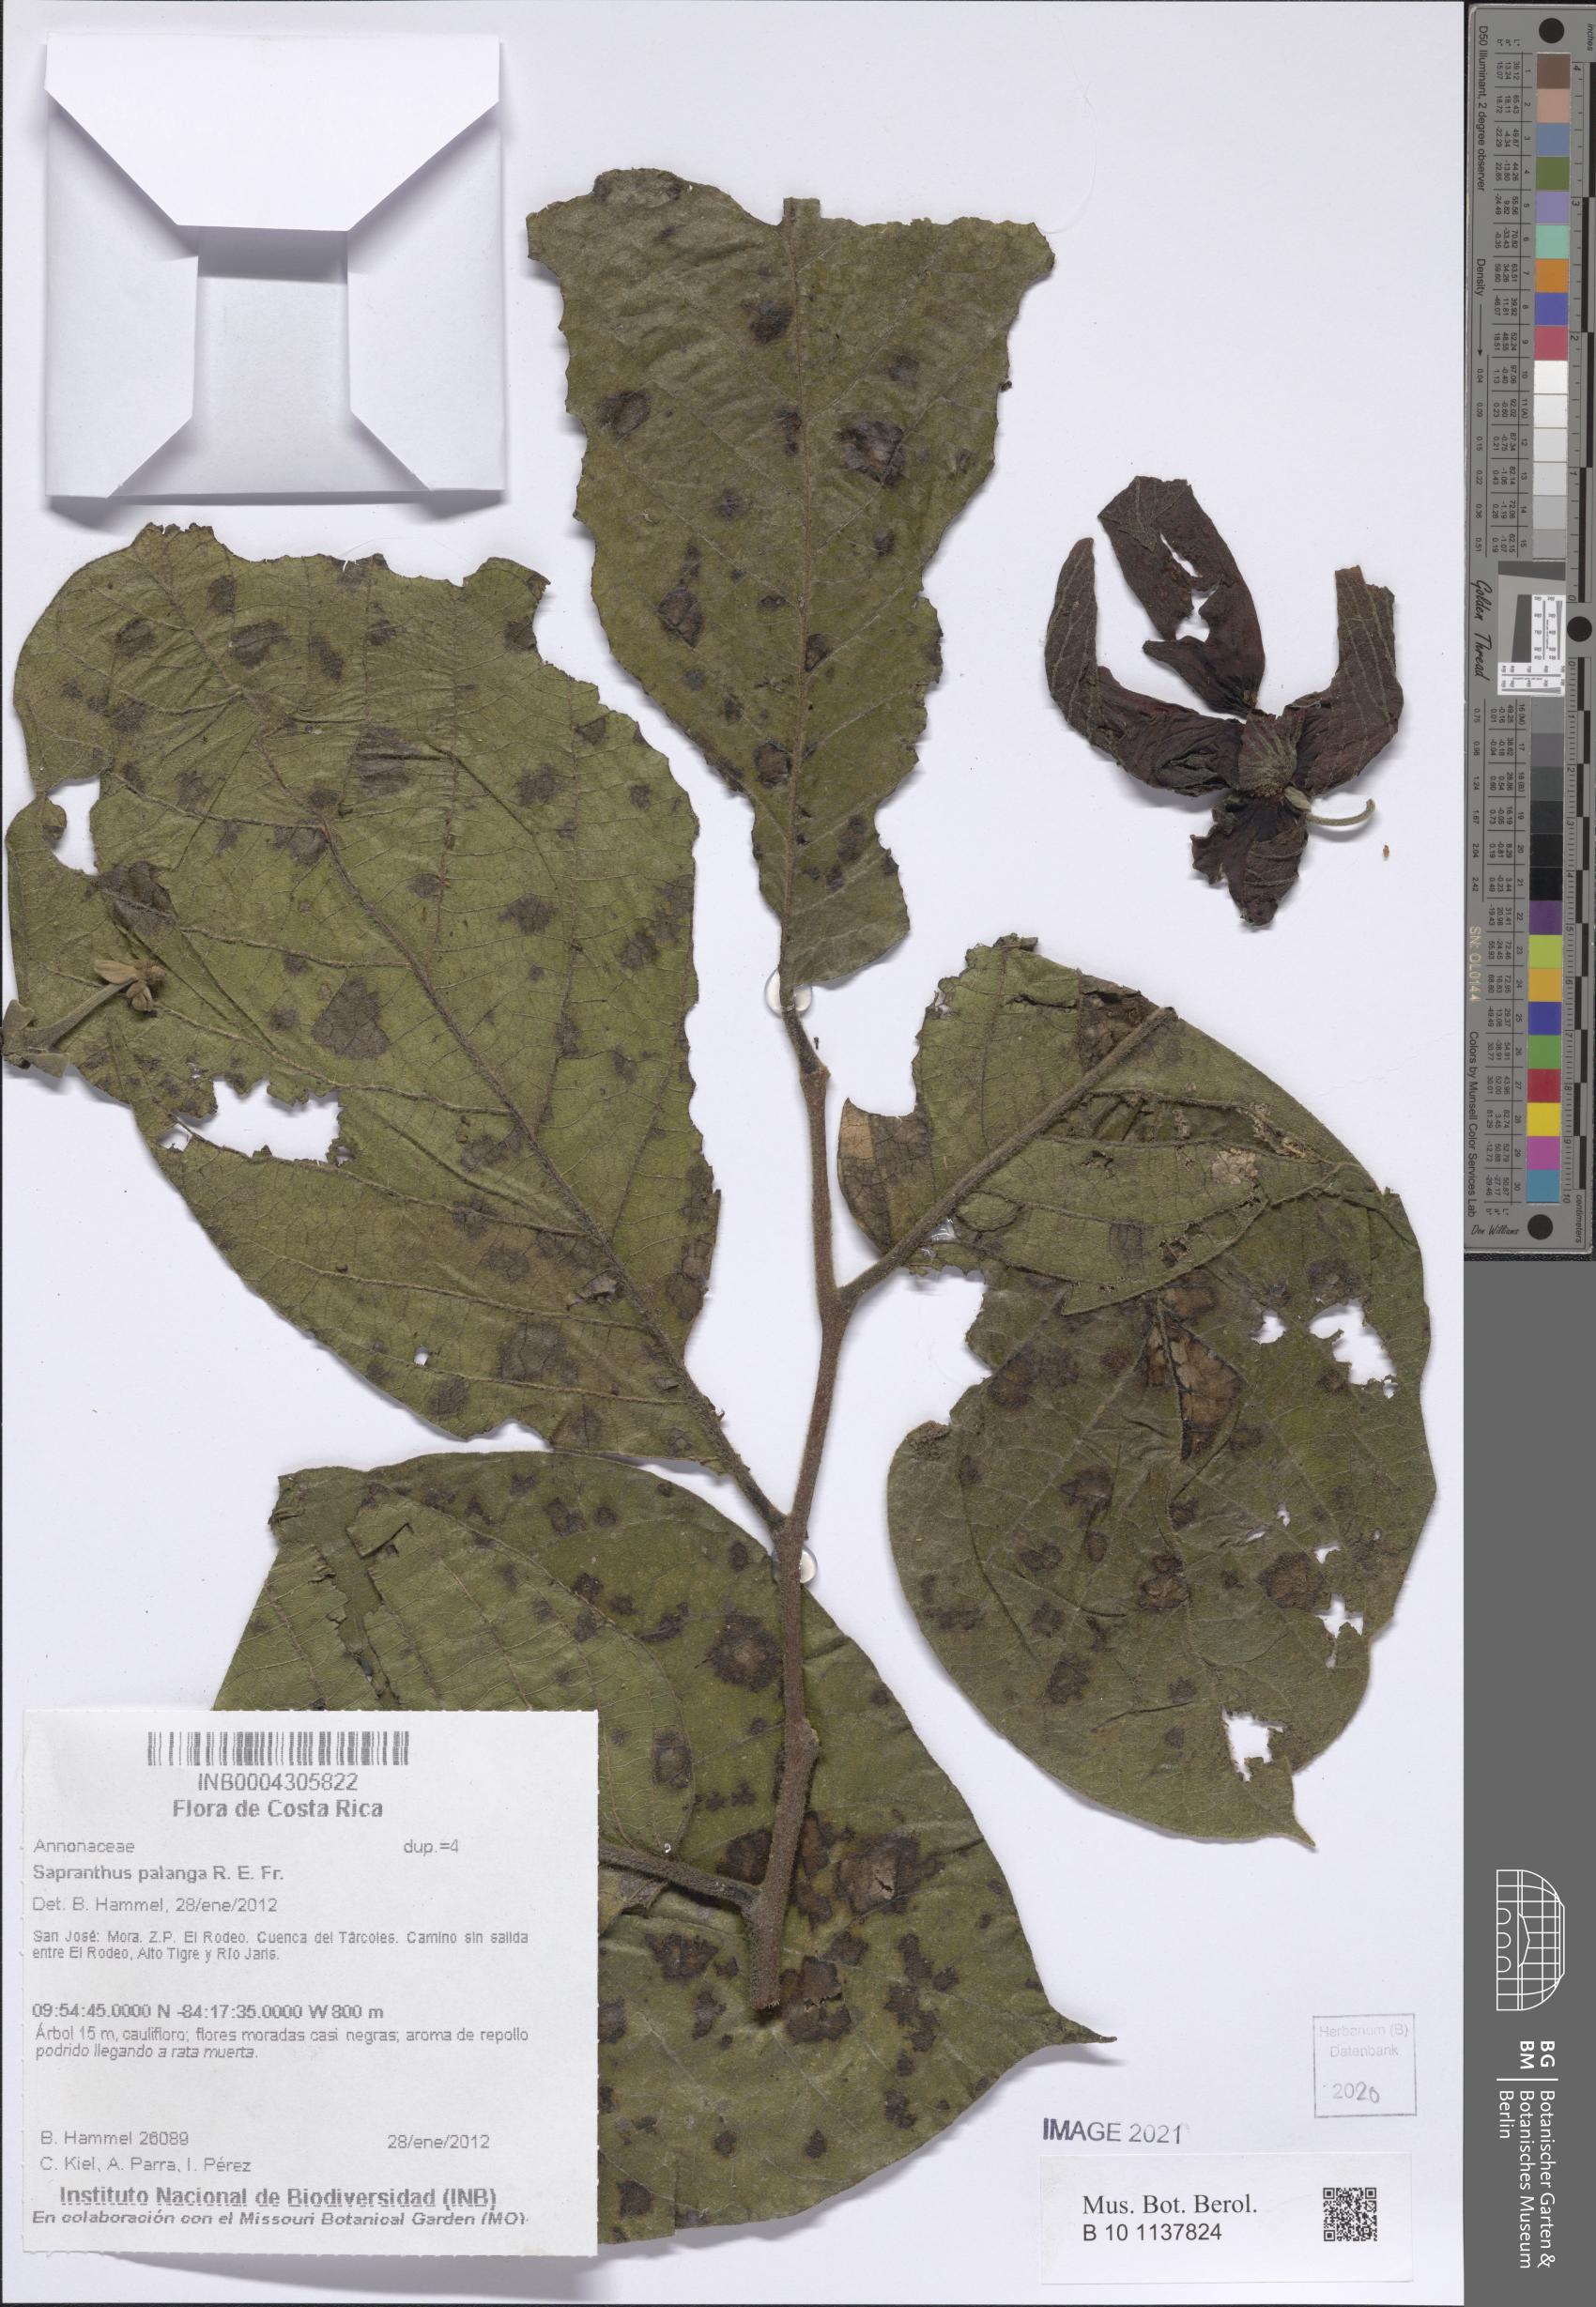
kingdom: Plantae
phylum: Tracheophyta
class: Magnoliopsida
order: Magnoliales
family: Annonaceae
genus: Sapranthus
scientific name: Sapranthus palanga
